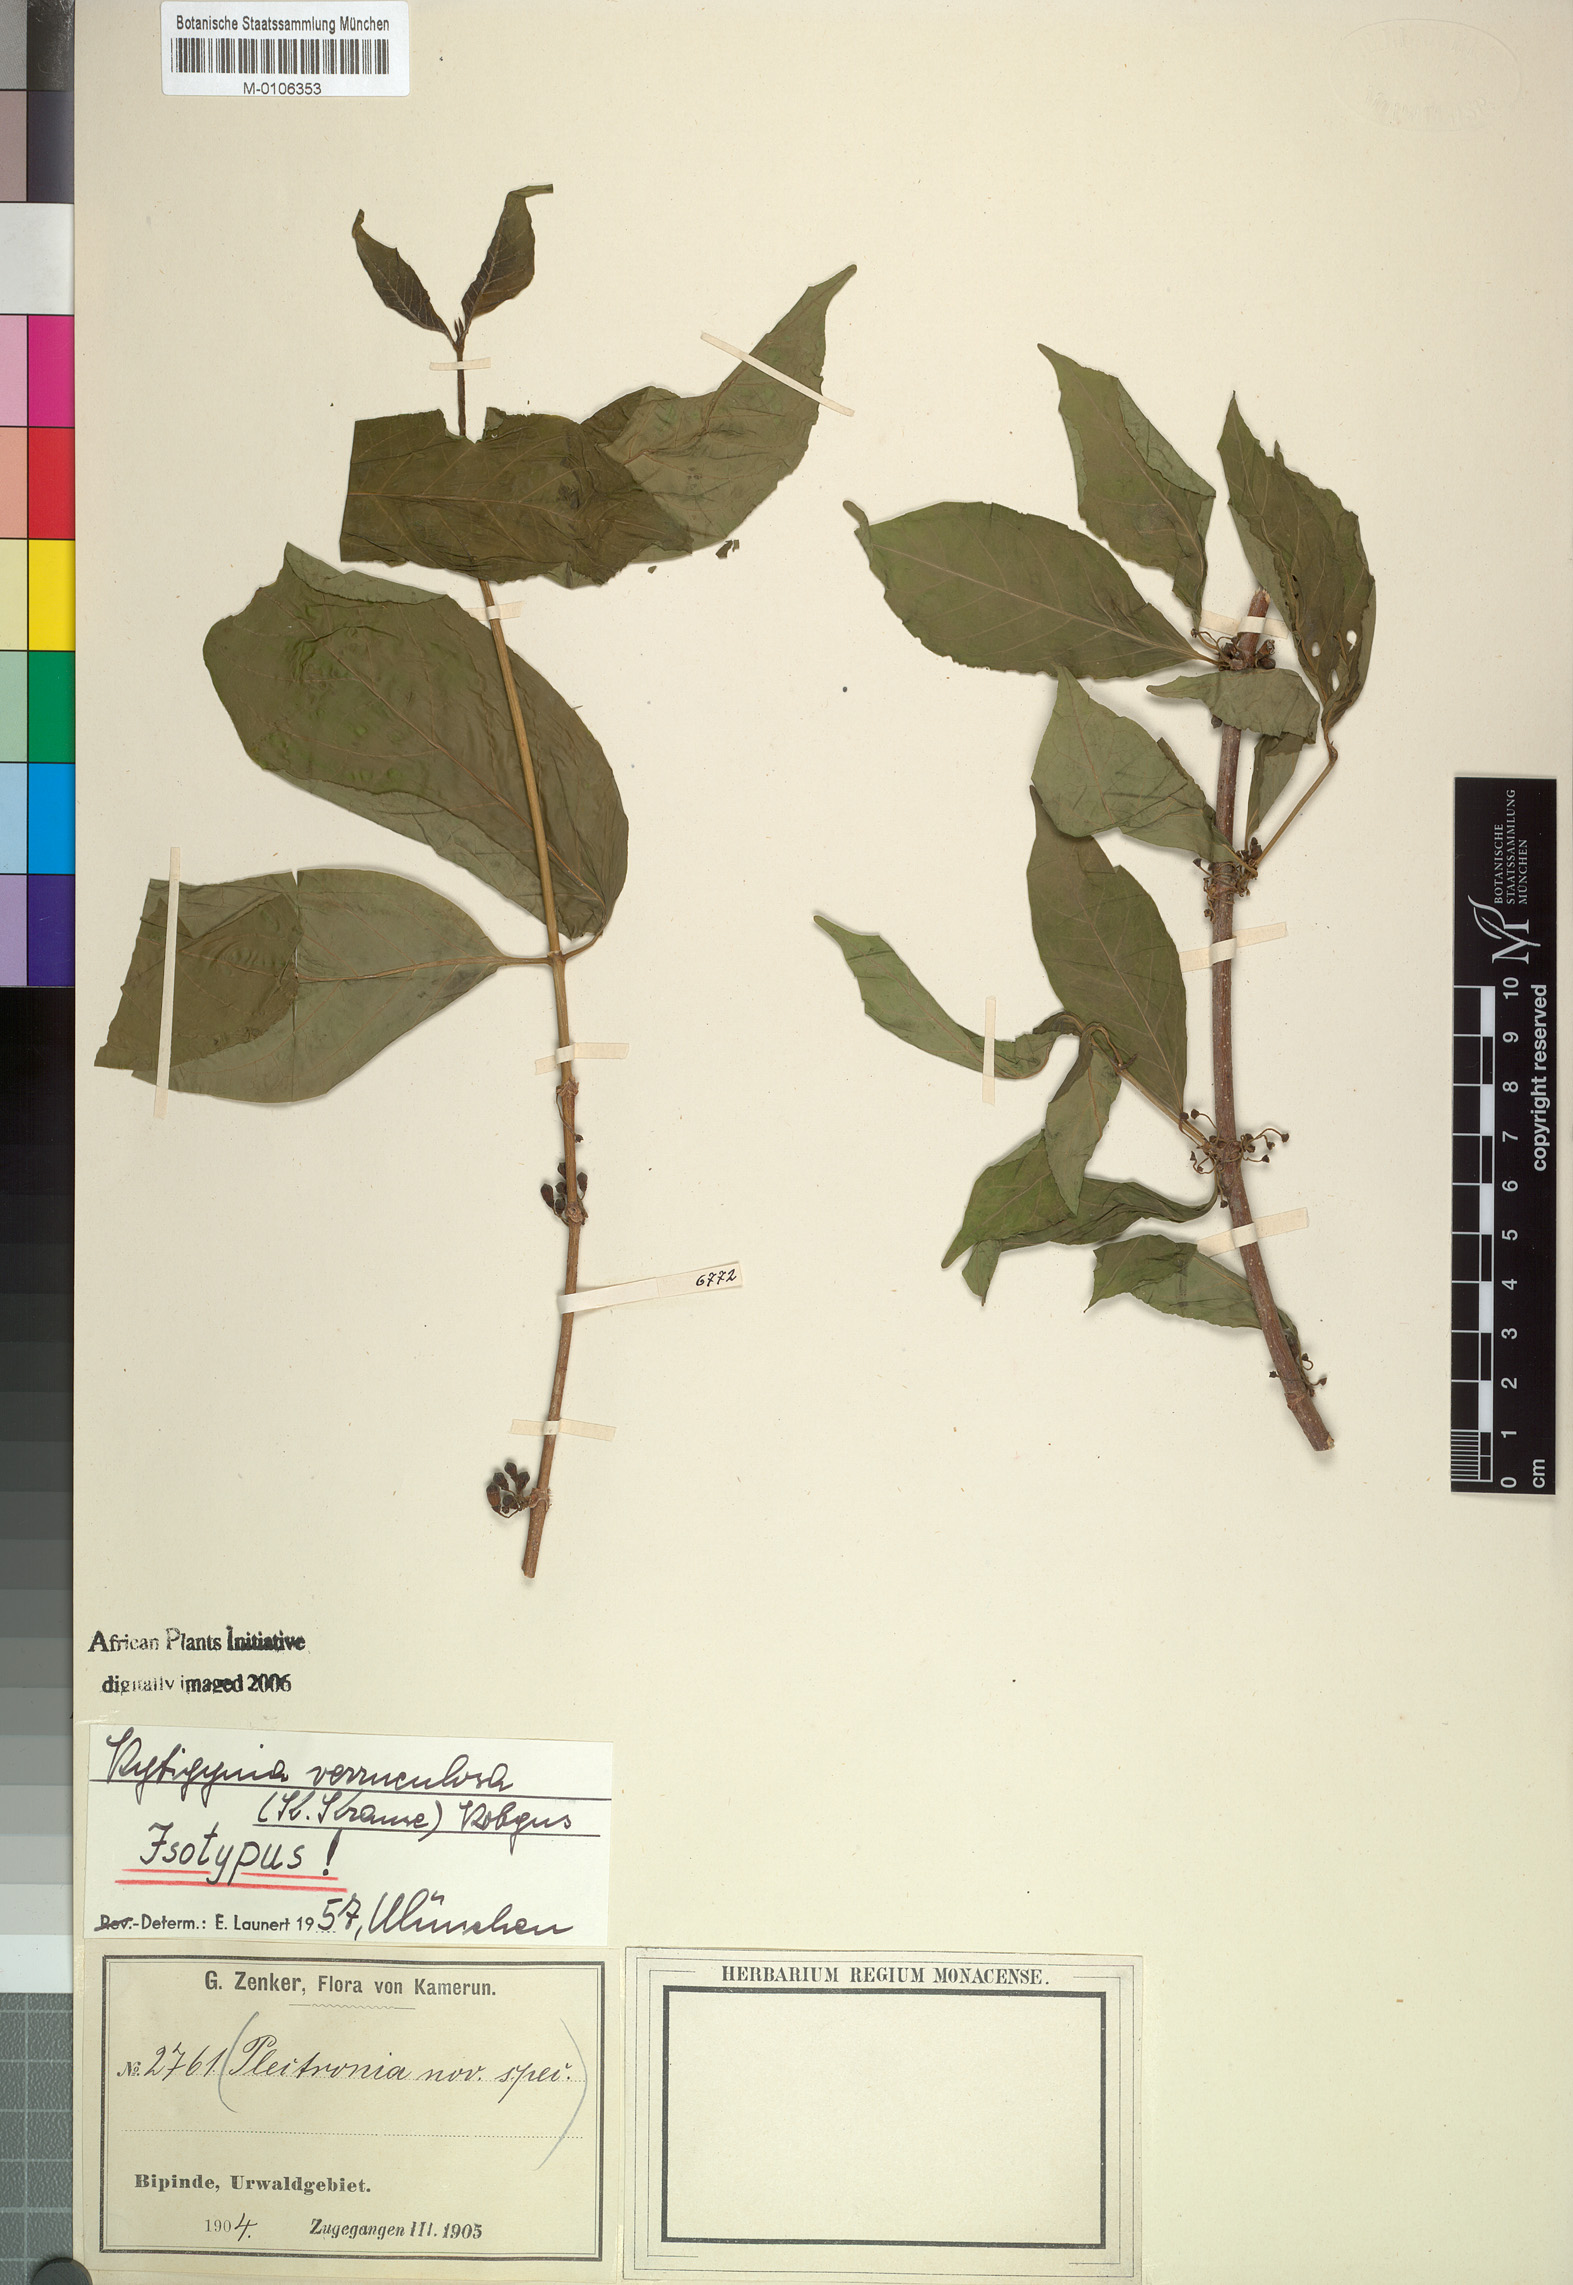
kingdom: Plantae
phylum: Tracheophyta
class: Magnoliopsida
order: Gentianales
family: Rubiaceae
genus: Rytigynia
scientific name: Rytigynia verruculosa
